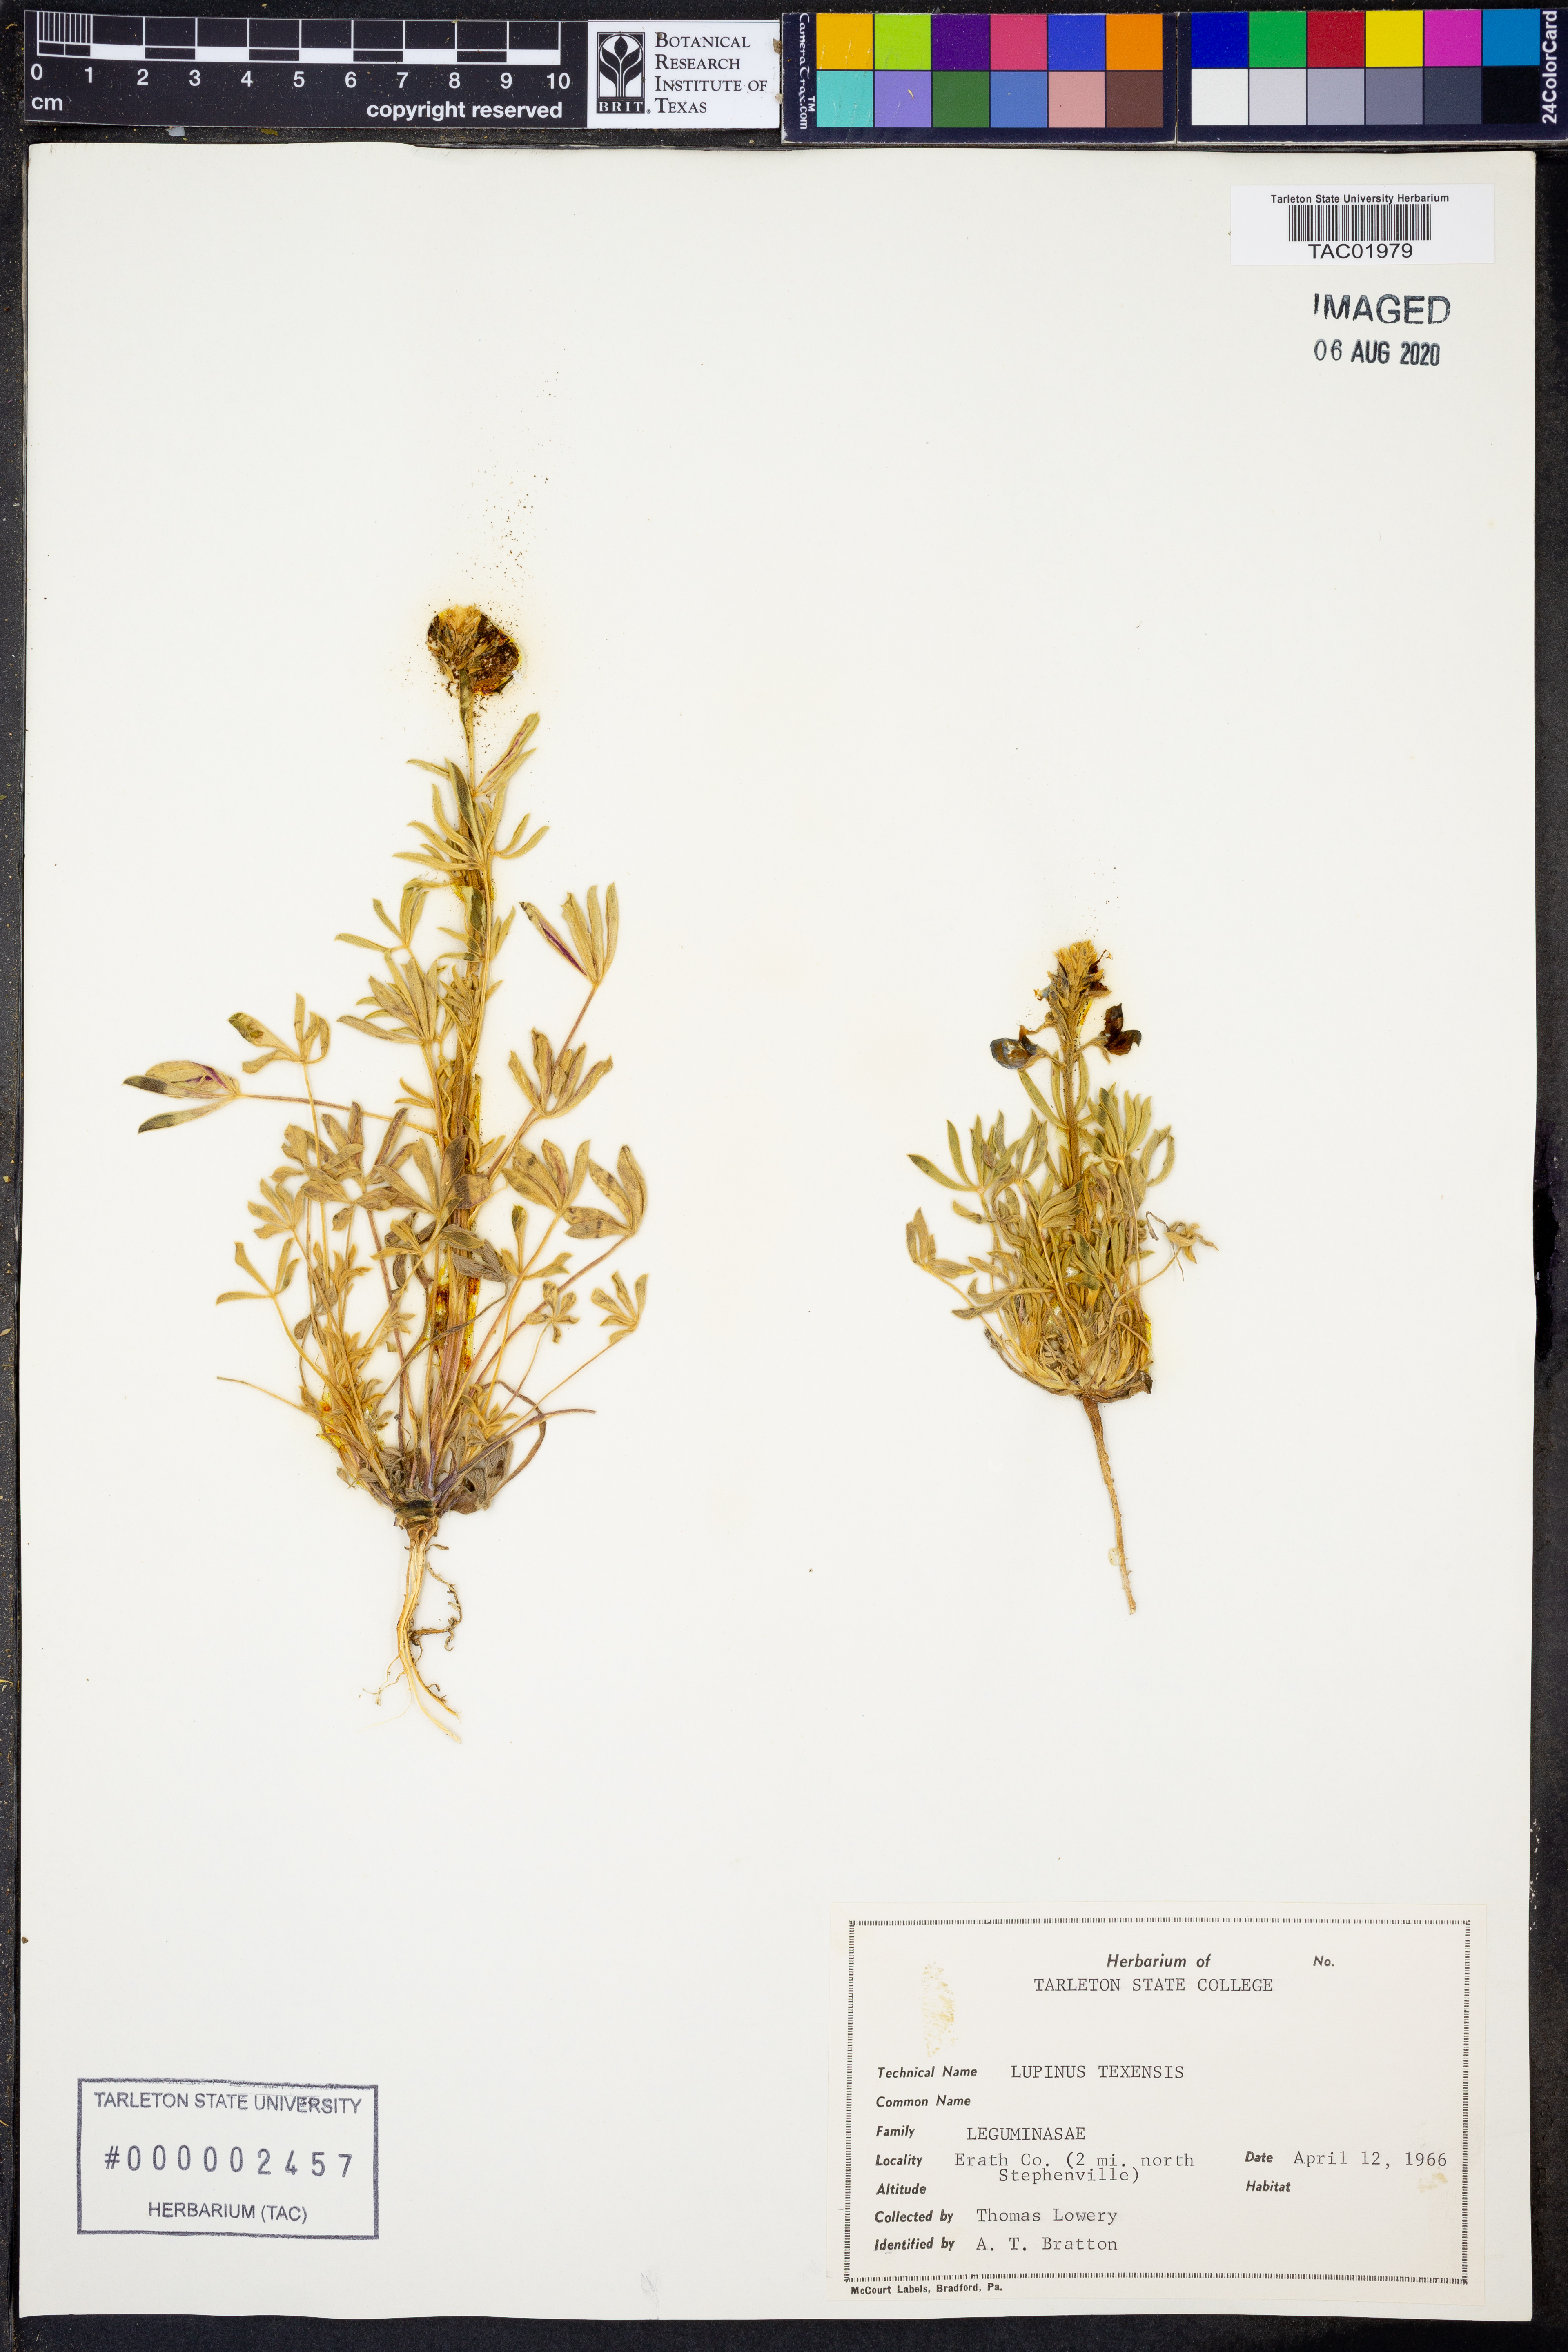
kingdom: Plantae
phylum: Tracheophyta
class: Magnoliopsida
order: Fabales
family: Fabaceae
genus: Lupinus
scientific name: Lupinus texensis
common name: Texas bluebonnet
